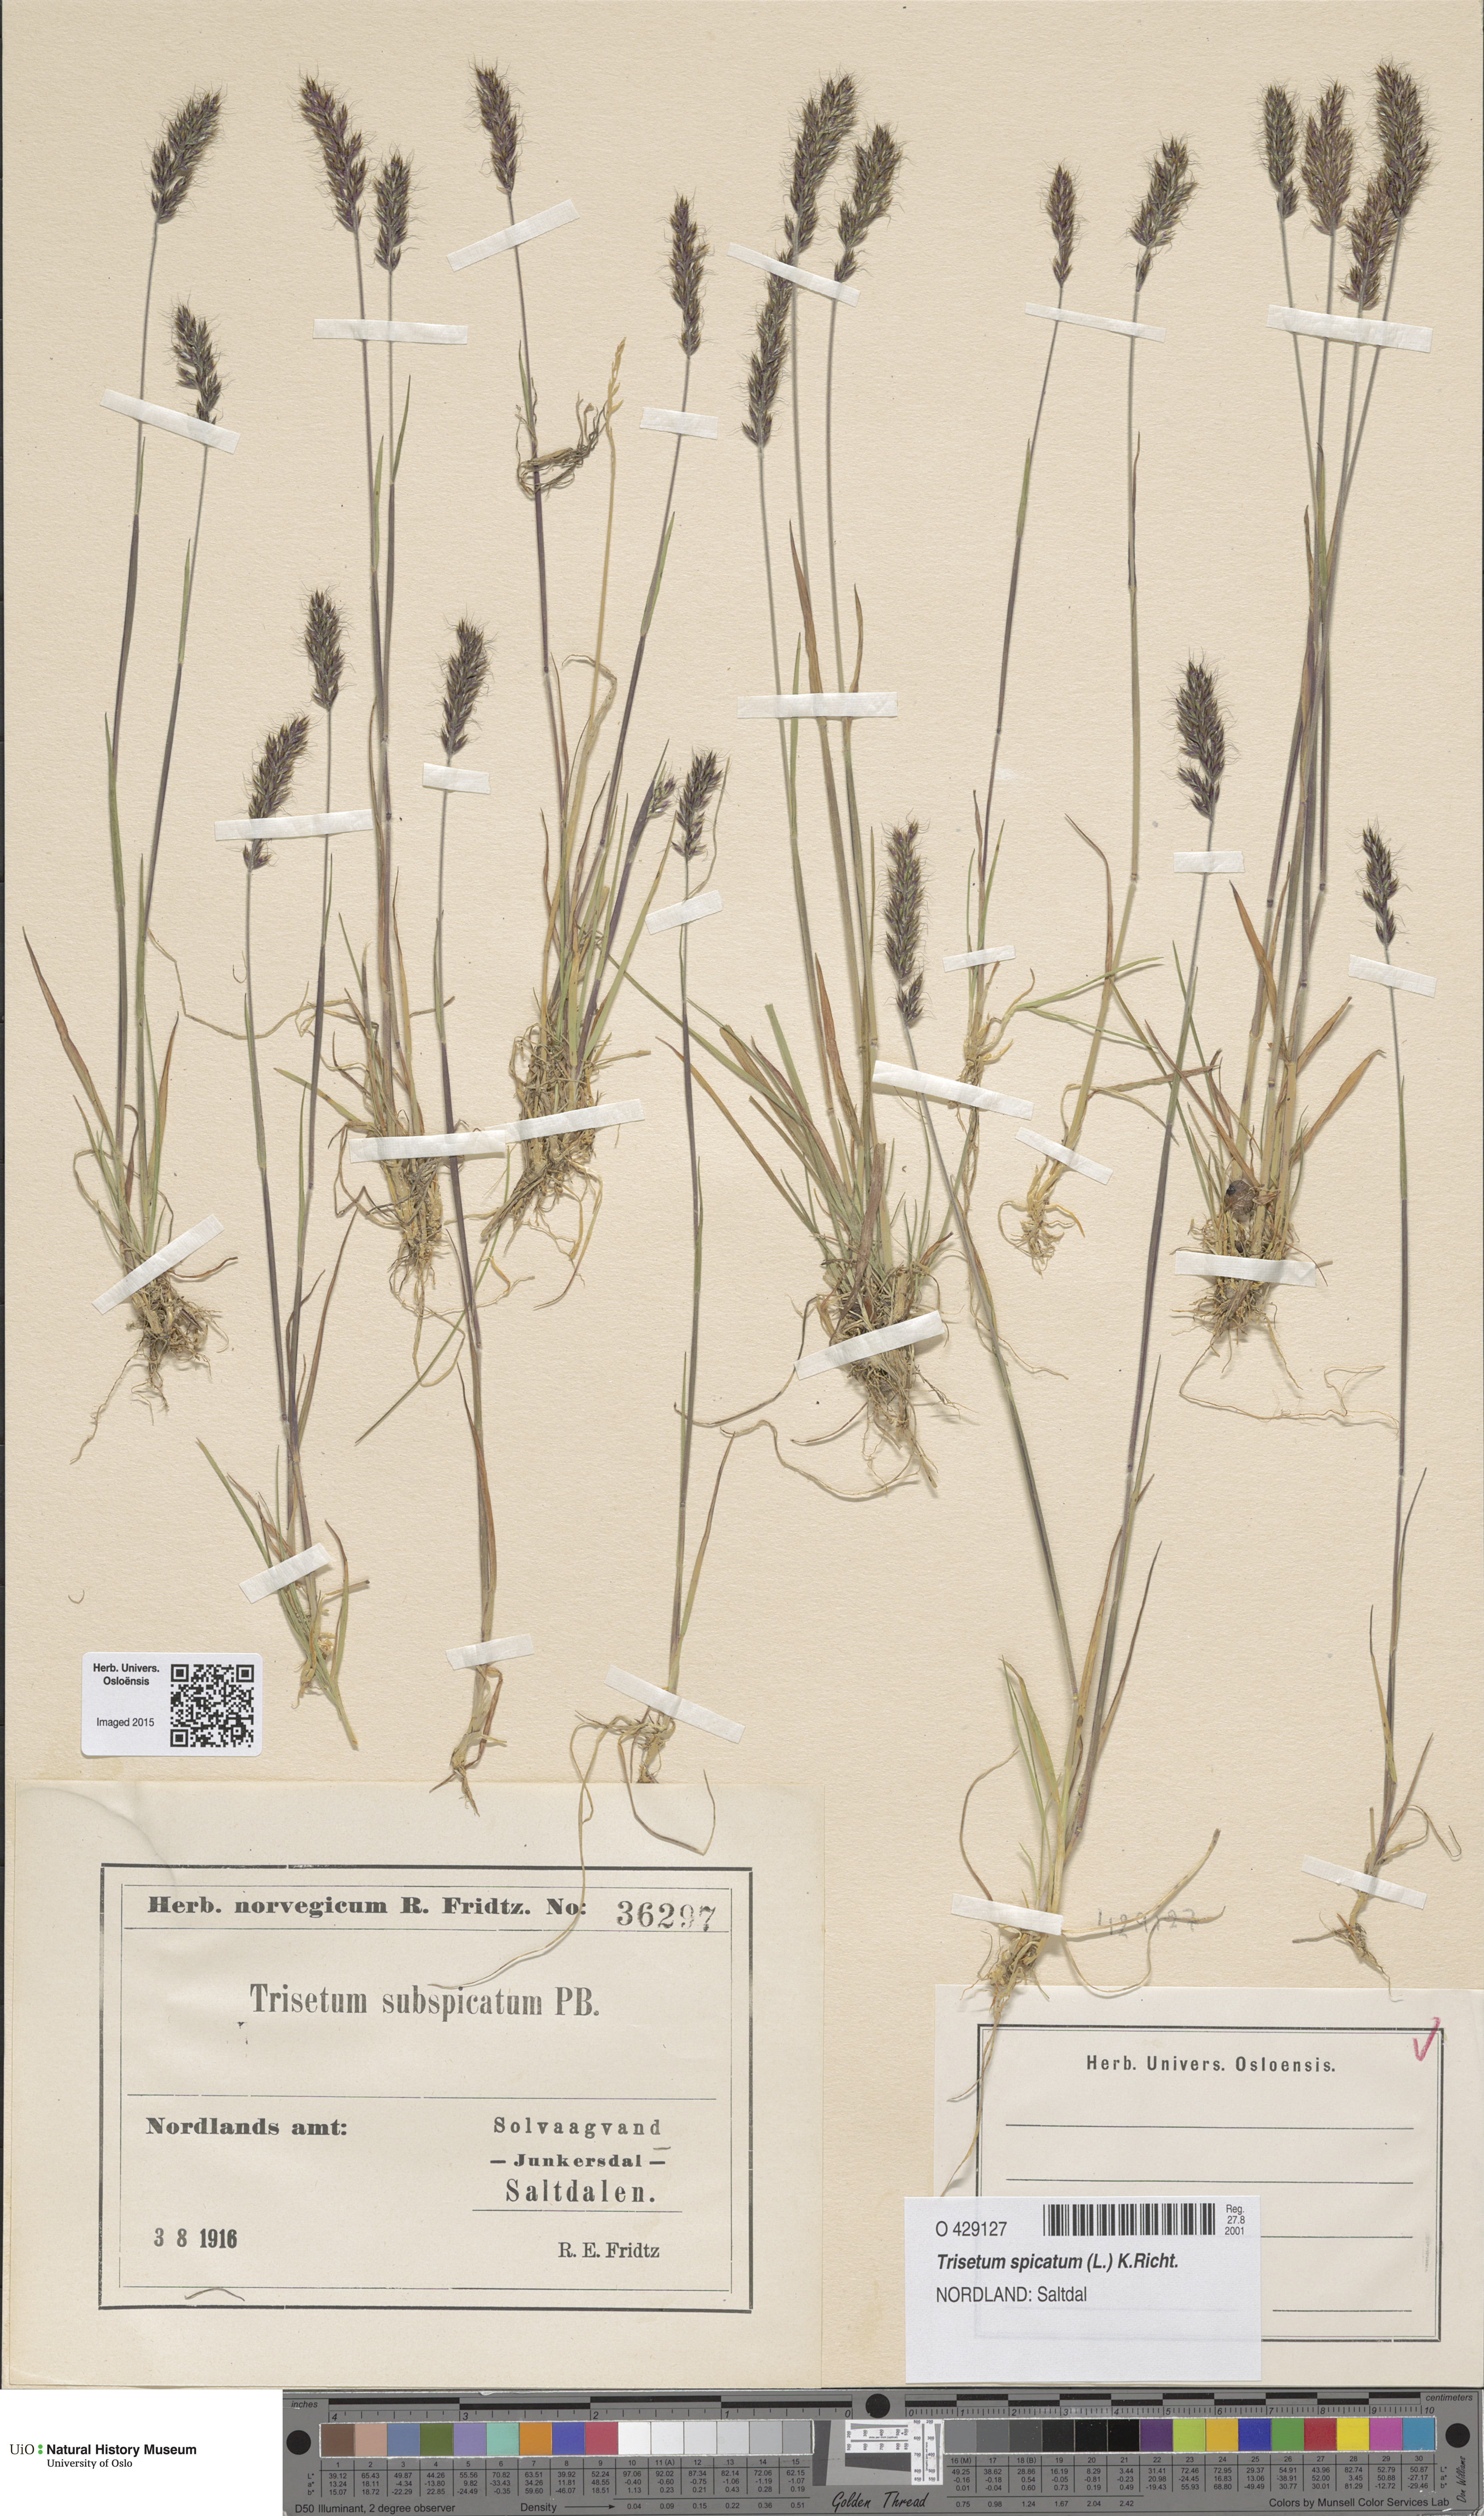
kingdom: Plantae
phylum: Tracheophyta
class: Liliopsida
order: Poales
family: Poaceae
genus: Koeleria
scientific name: Koeleria spicata
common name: Mountain trisetum
